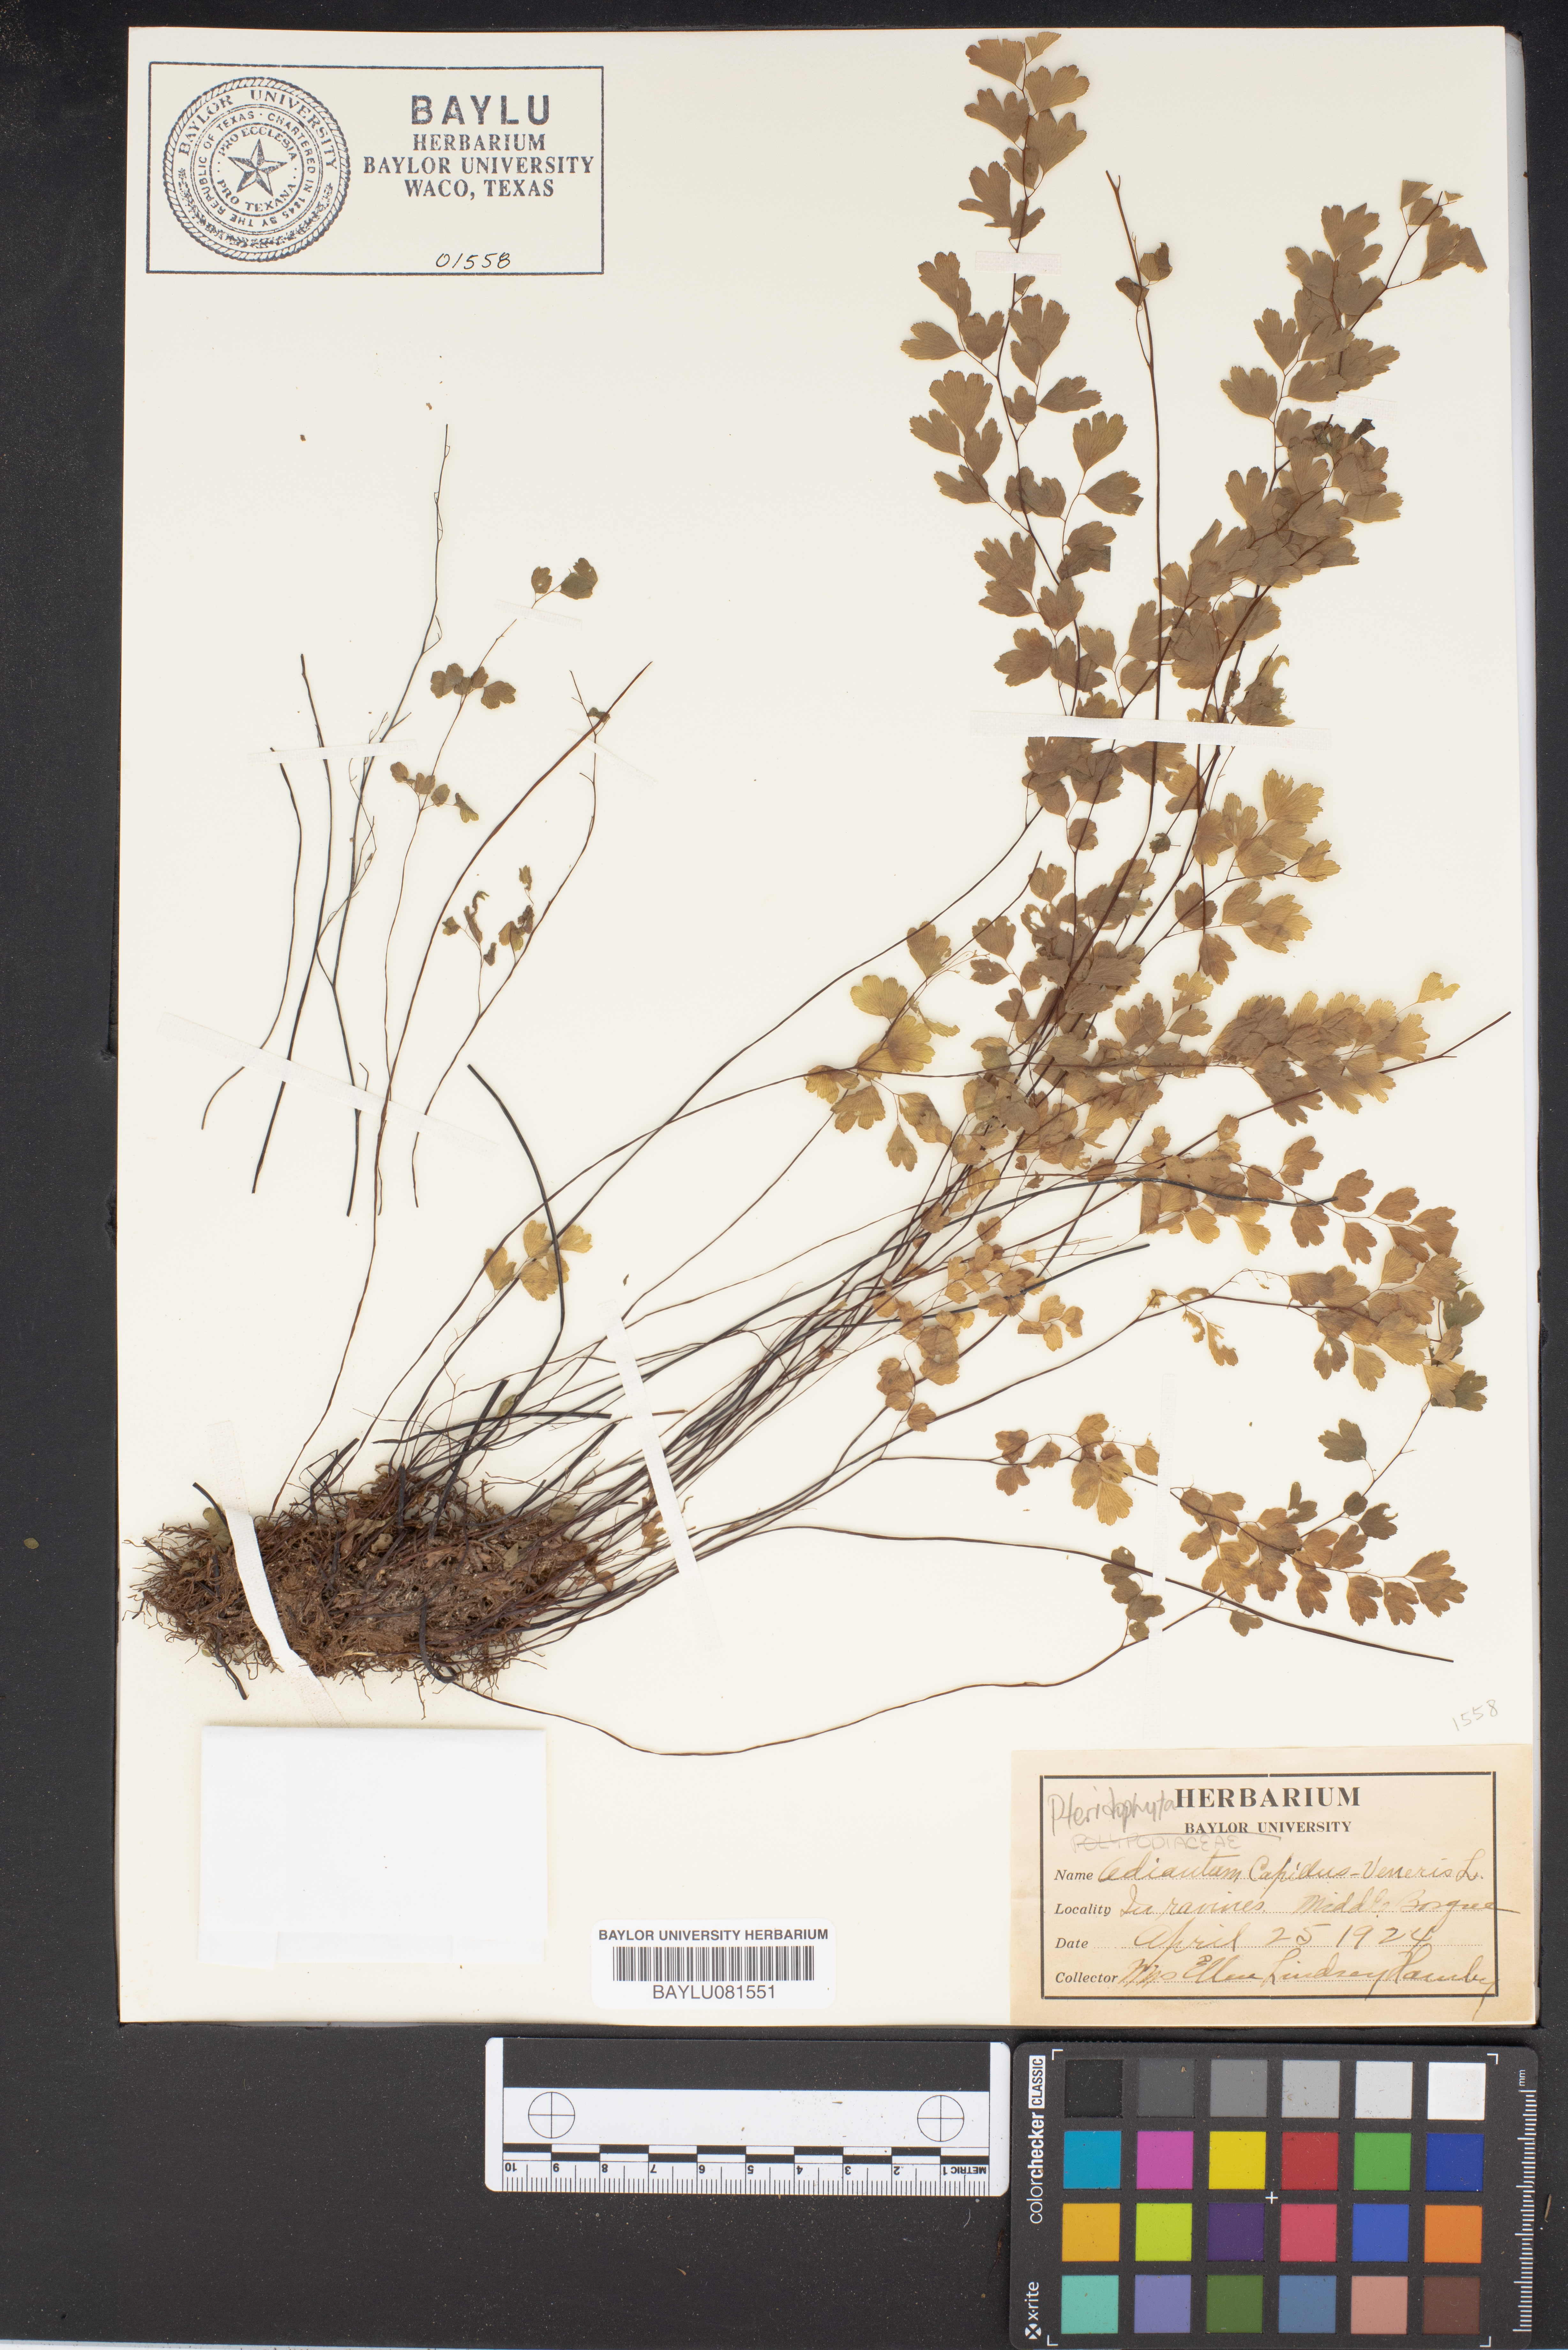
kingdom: Plantae
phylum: Tracheophyta
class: Polypodiopsida
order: Polypodiales
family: Pteridaceae
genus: Adiantum
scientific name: Adiantum capillus-veneris
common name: Maidenhair fern
